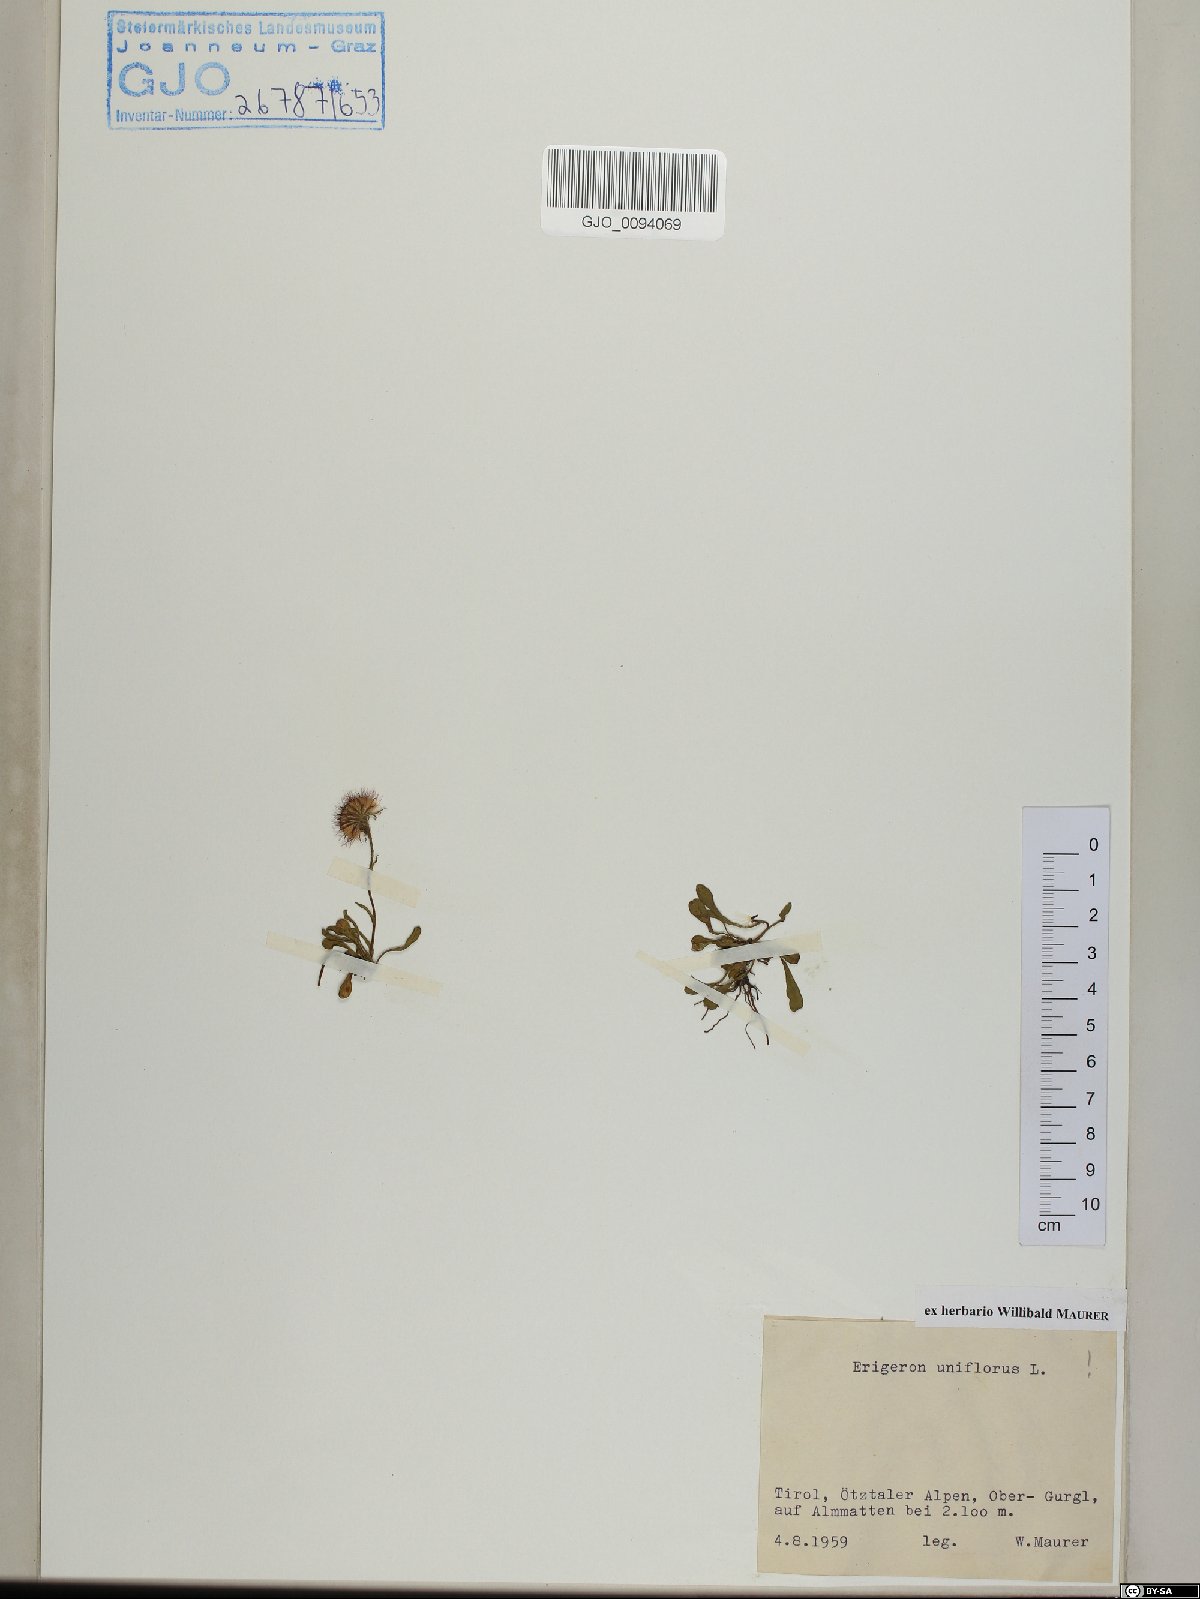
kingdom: Plantae
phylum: Tracheophyta
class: Magnoliopsida
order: Asterales
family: Asteraceae
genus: Erigeron
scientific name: Erigeron uniflorus
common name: Northern daisy
